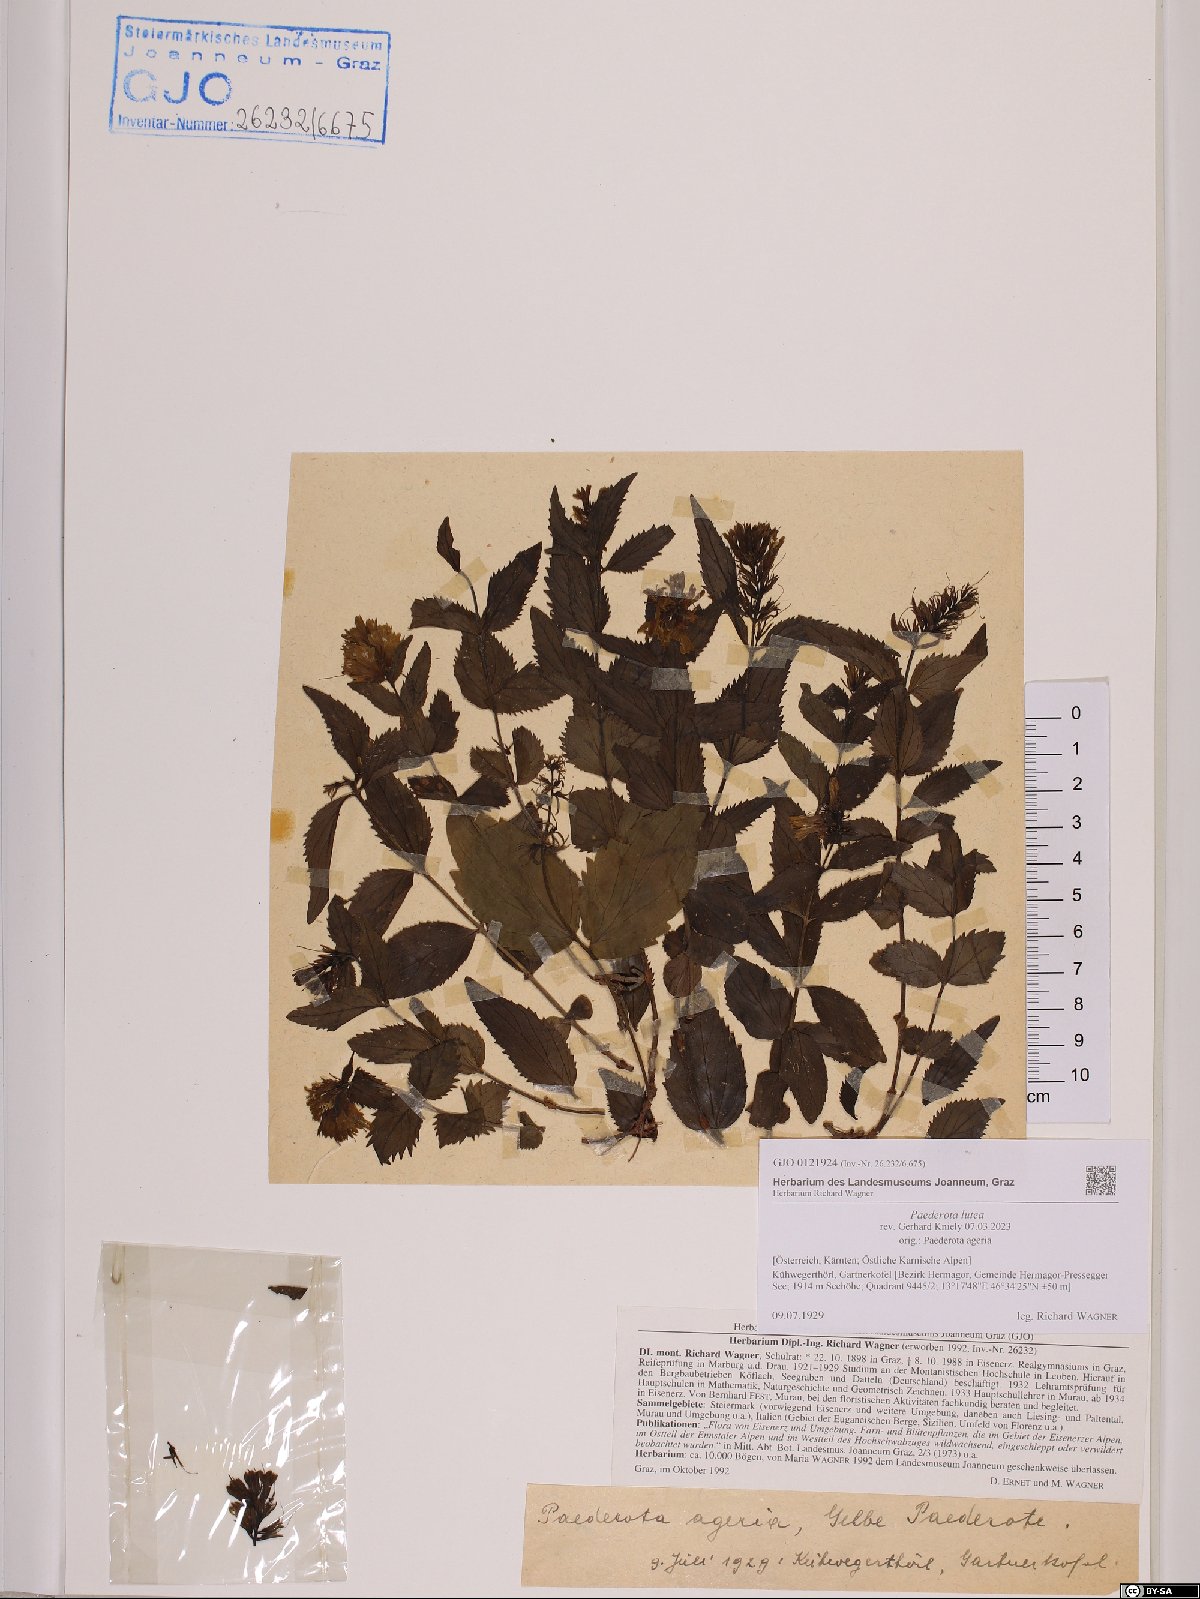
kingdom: Plantae
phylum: Tracheophyta
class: Magnoliopsida
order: Lamiales
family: Plantaginaceae
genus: Paederota
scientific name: Paederota lutea
